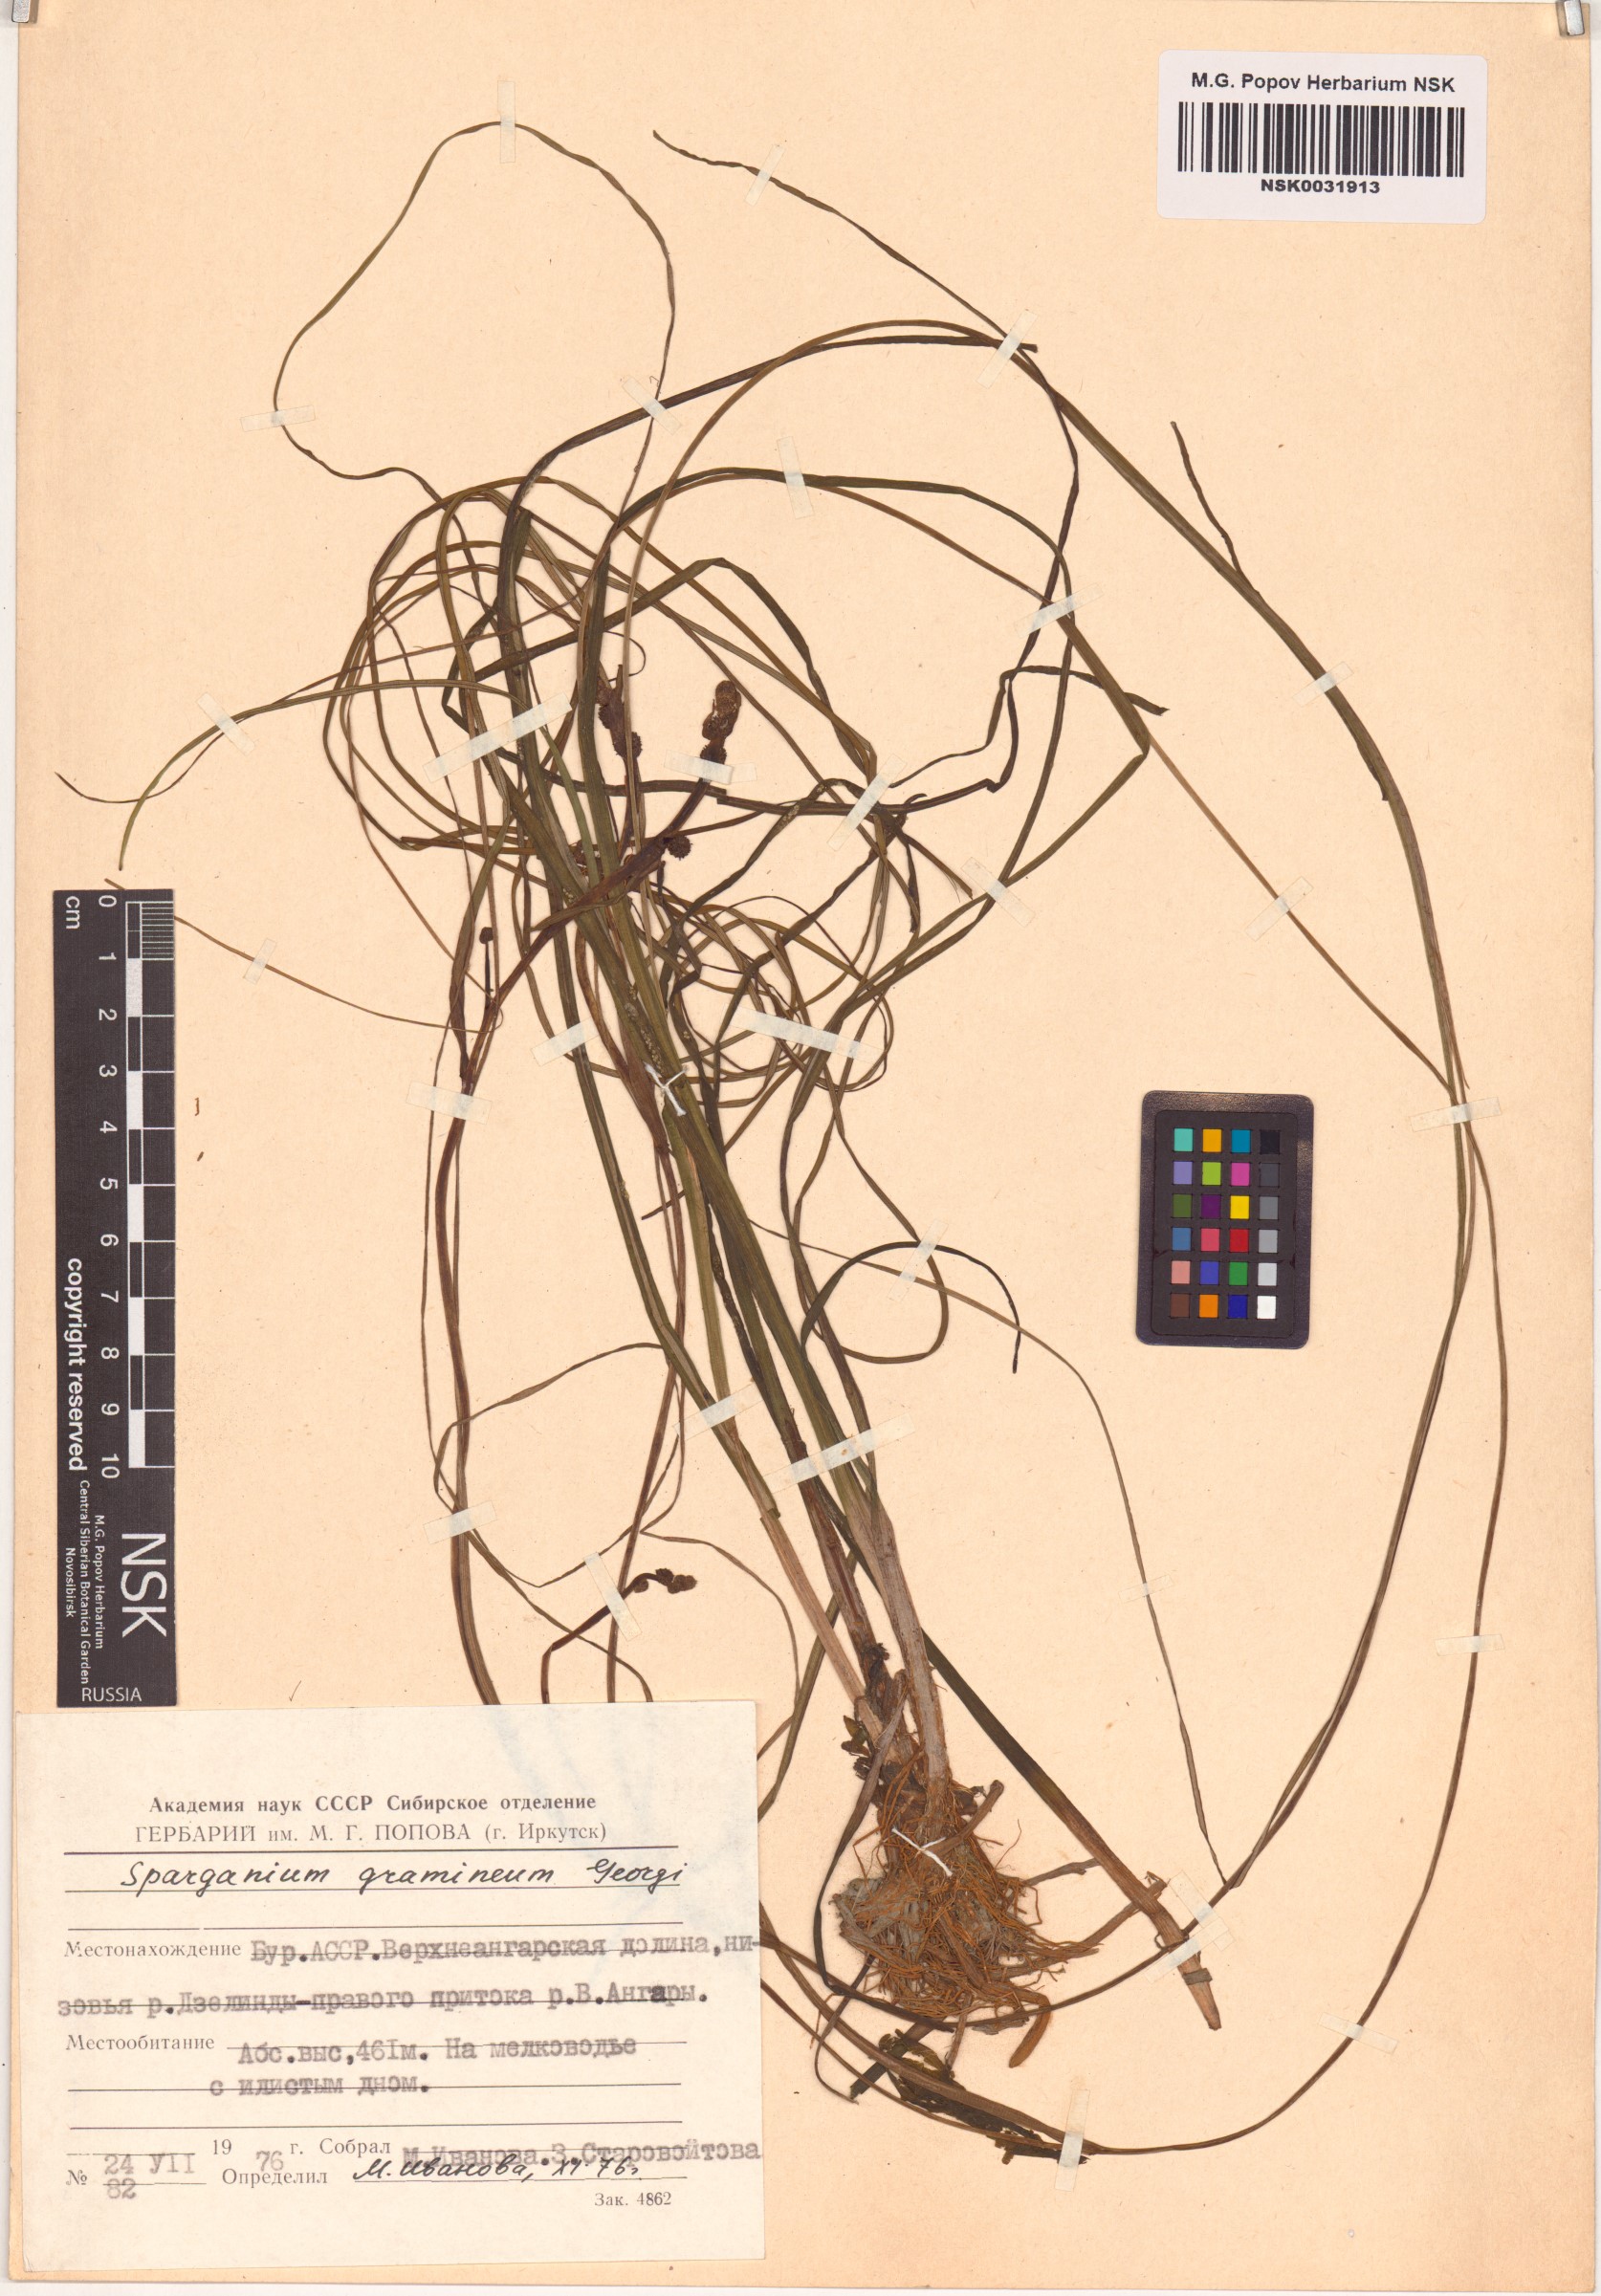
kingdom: Plantae
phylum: Tracheophyta
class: Liliopsida
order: Poales
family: Typhaceae
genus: Sparganium
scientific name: Sparganium gramineum
